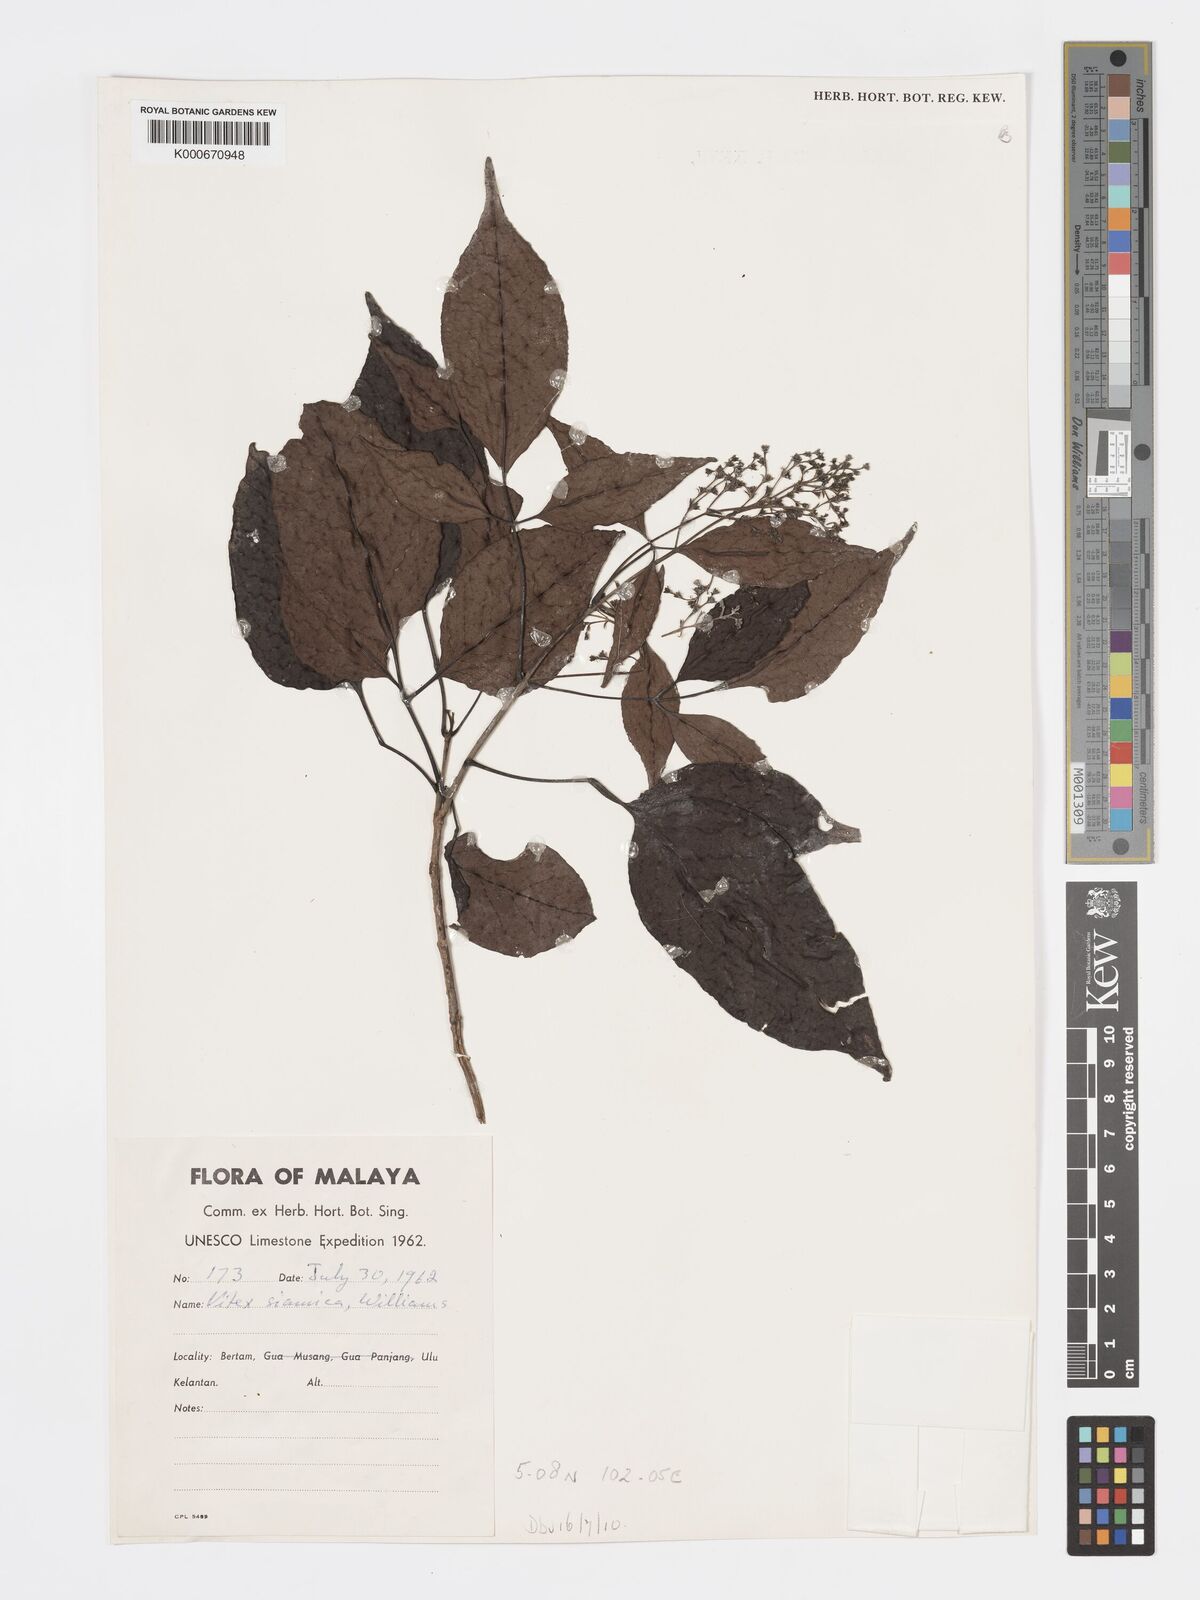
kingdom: Plantae
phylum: Tracheophyta
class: Magnoliopsida
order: Lamiales
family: Lamiaceae
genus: Vitex
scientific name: Vitex siamica
